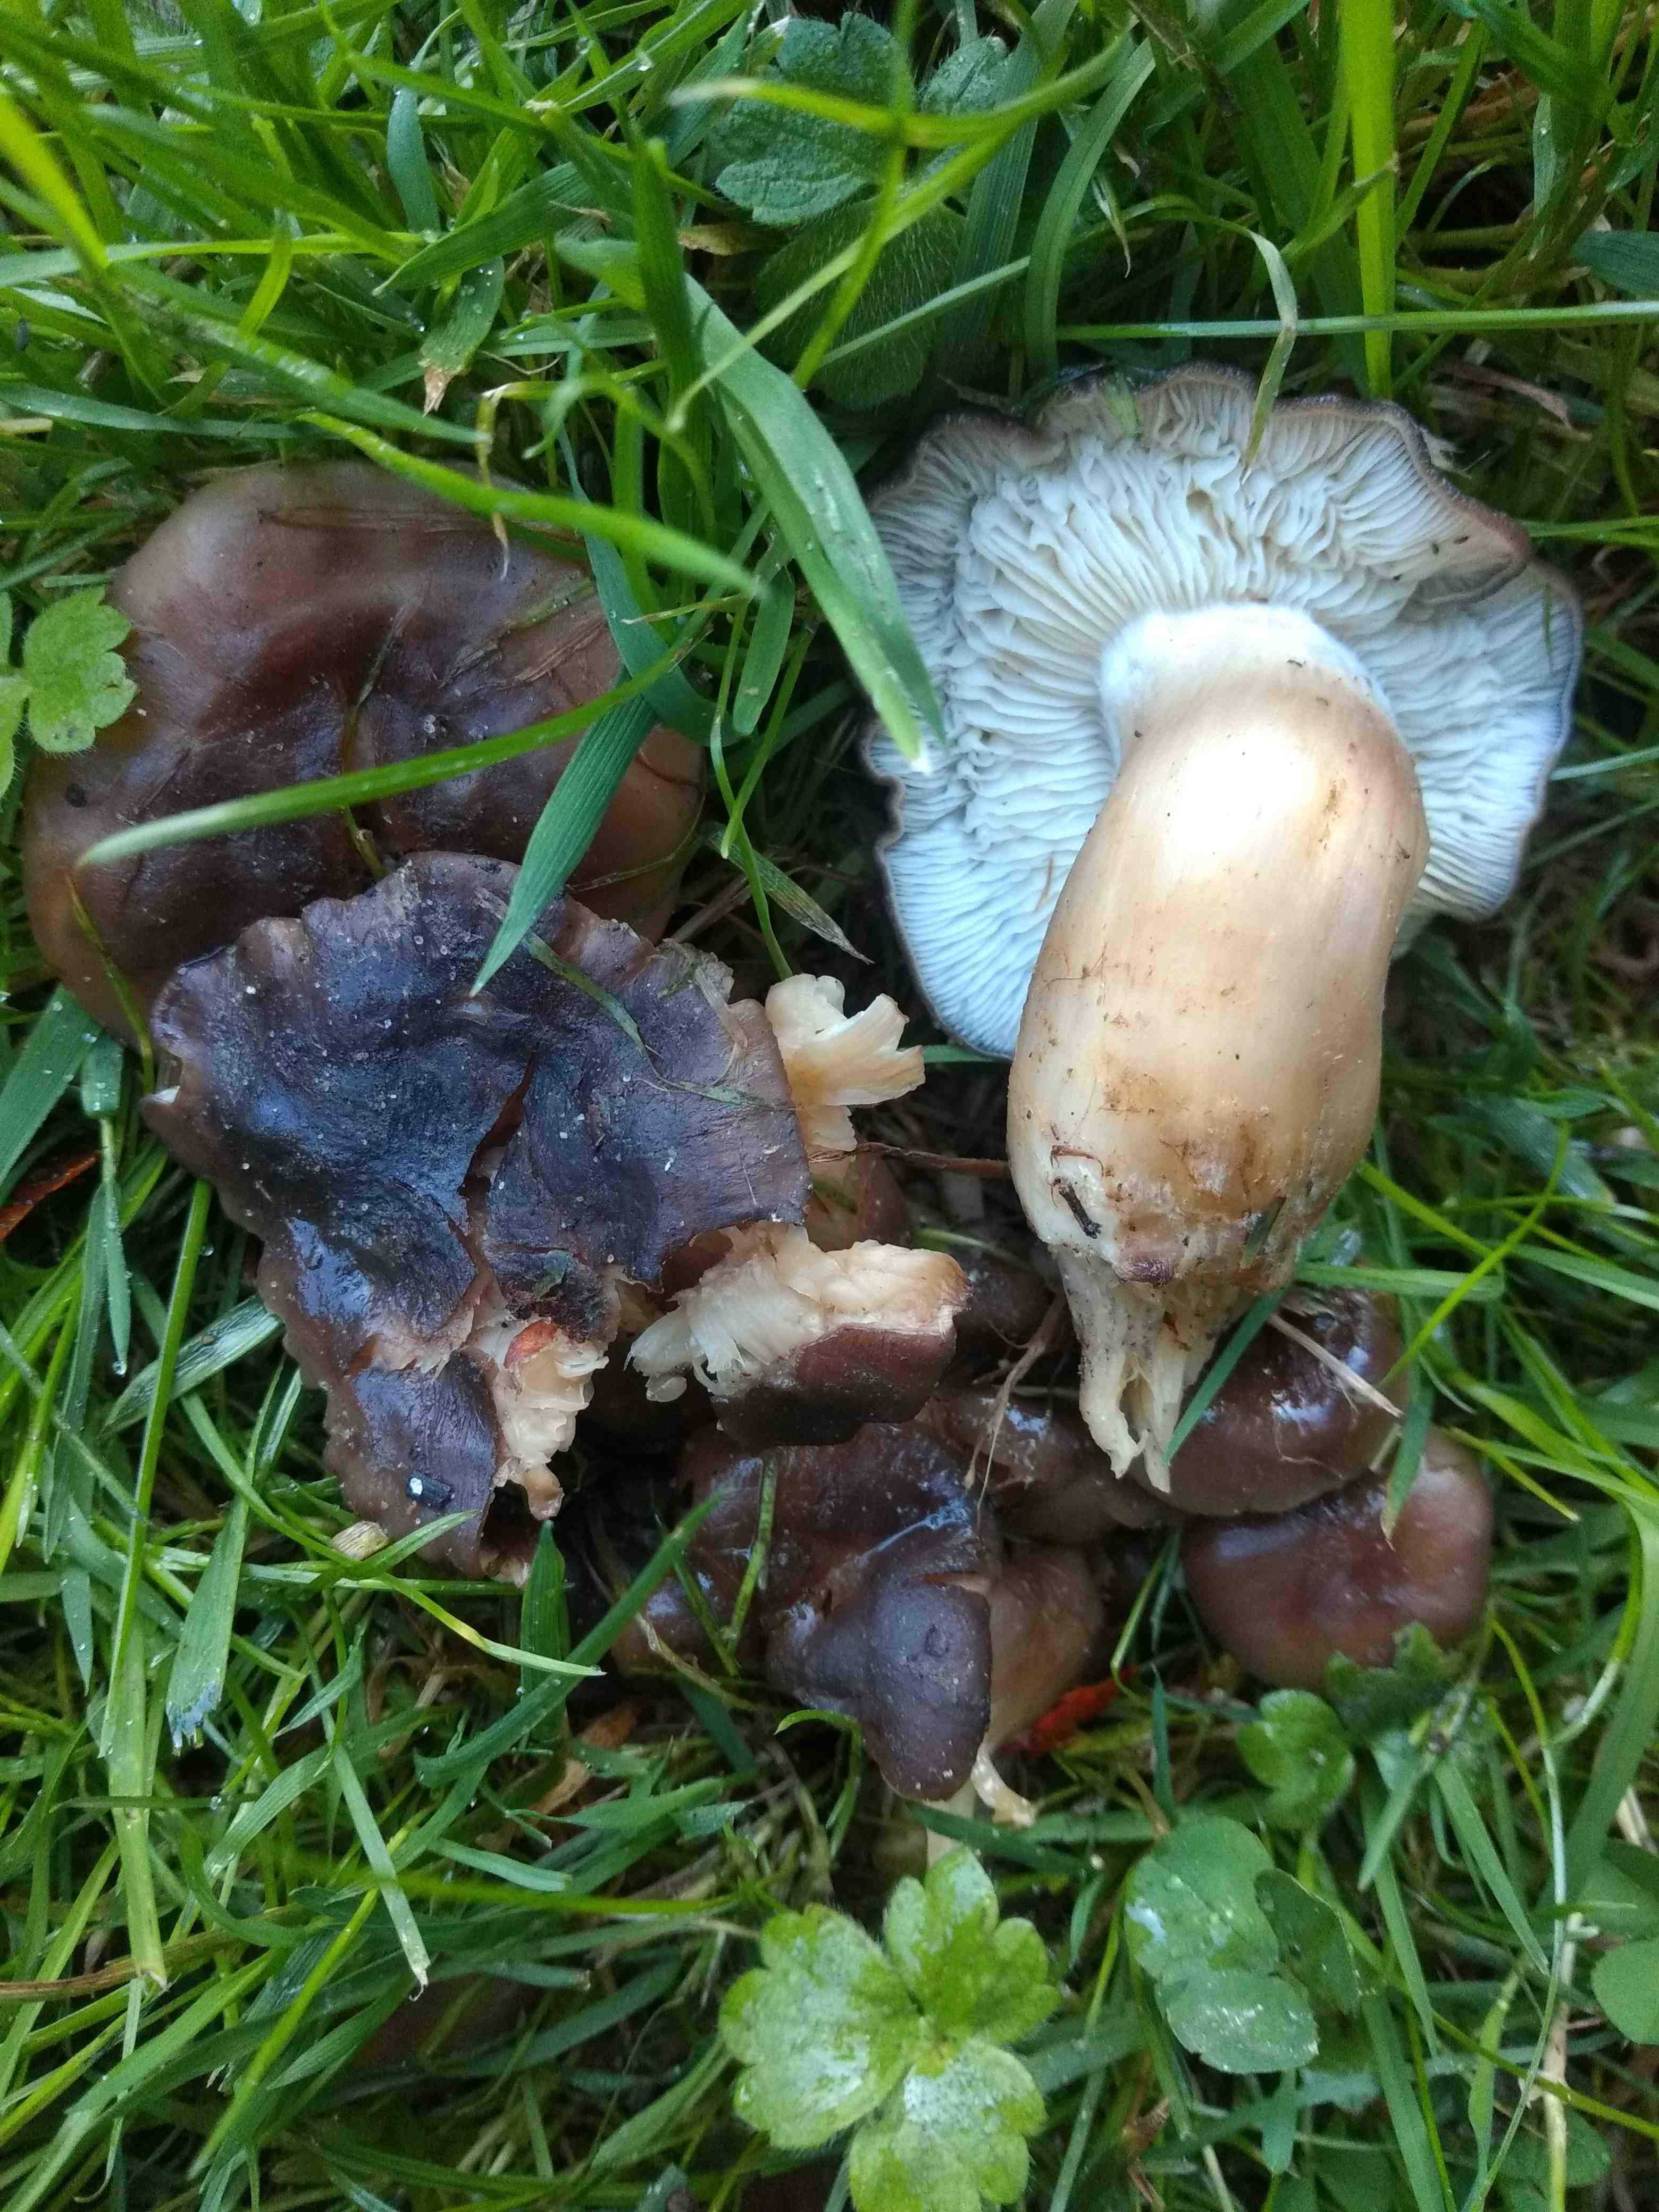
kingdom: Fungi
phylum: Basidiomycota
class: Agaricomycetes
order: Agaricales
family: Lyophyllaceae
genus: Lyophyllum
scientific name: Lyophyllum decastes
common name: røggrå gråblad
